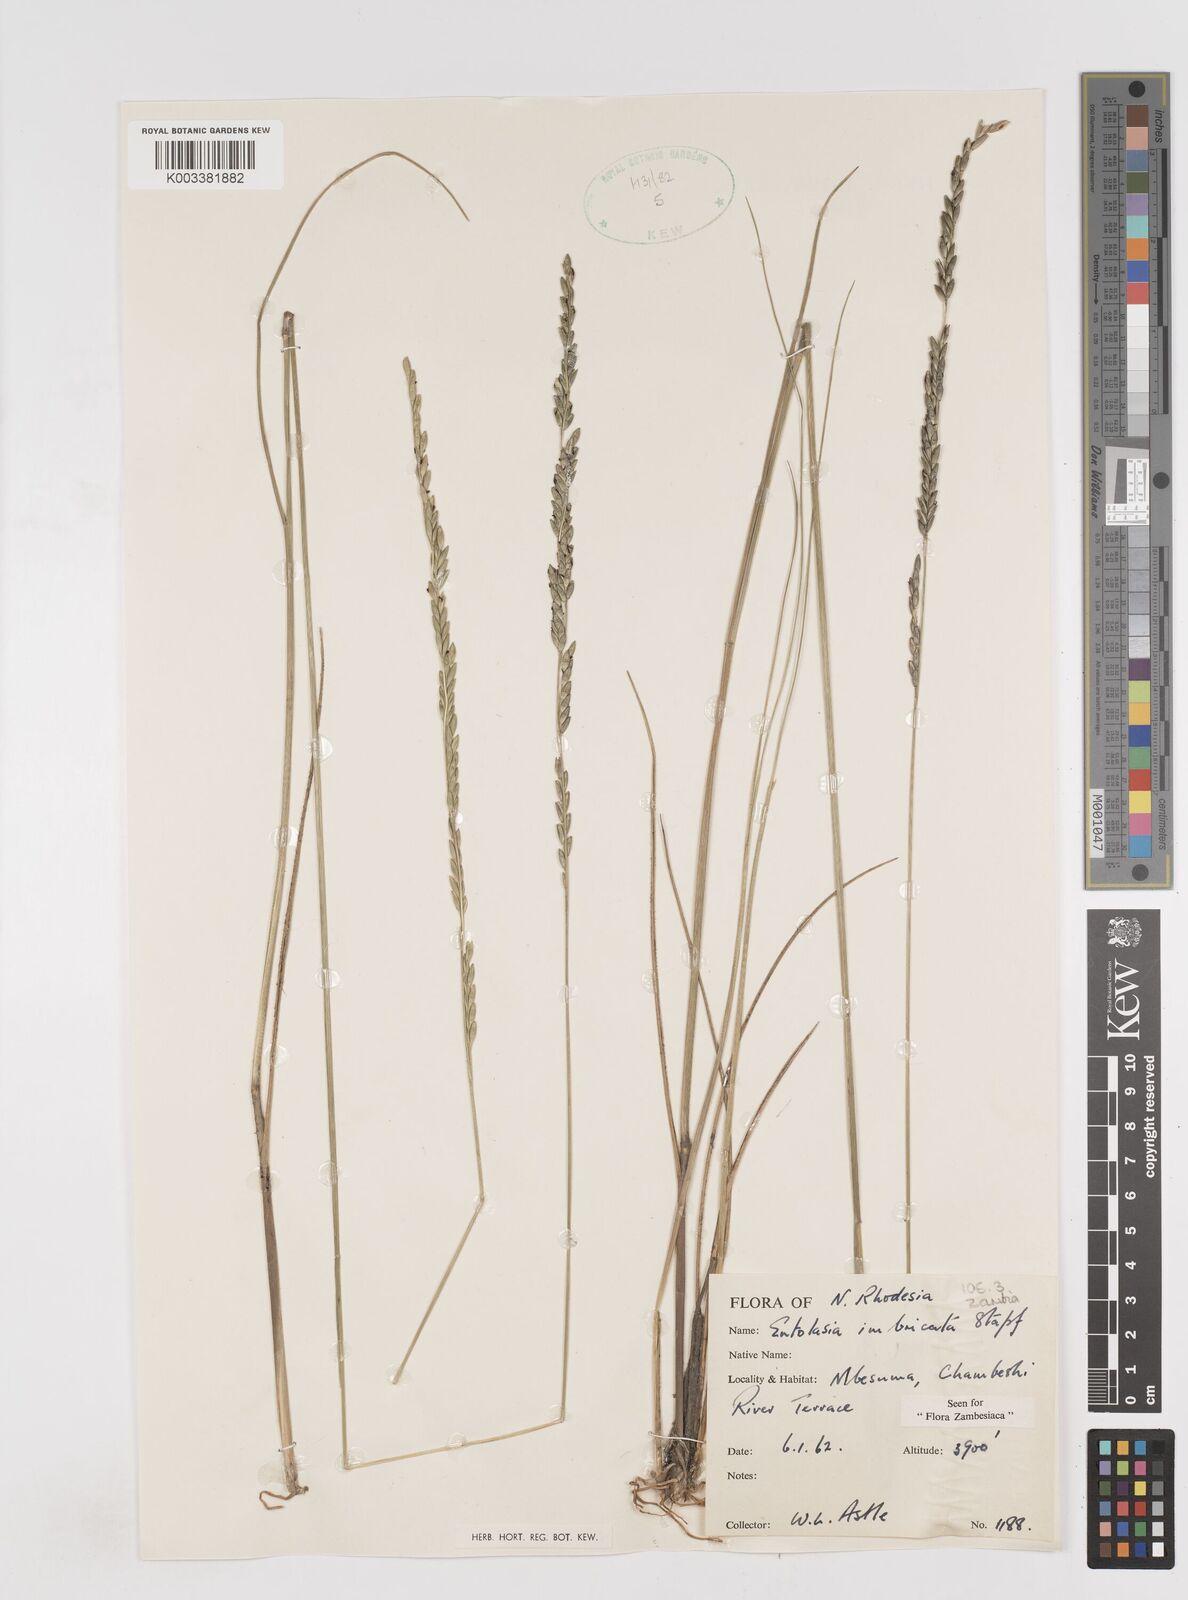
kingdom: Plantae
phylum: Tracheophyta
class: Liliopsida
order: Poales
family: Poaceae
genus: Entolasia
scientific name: Entolasia imbricata
